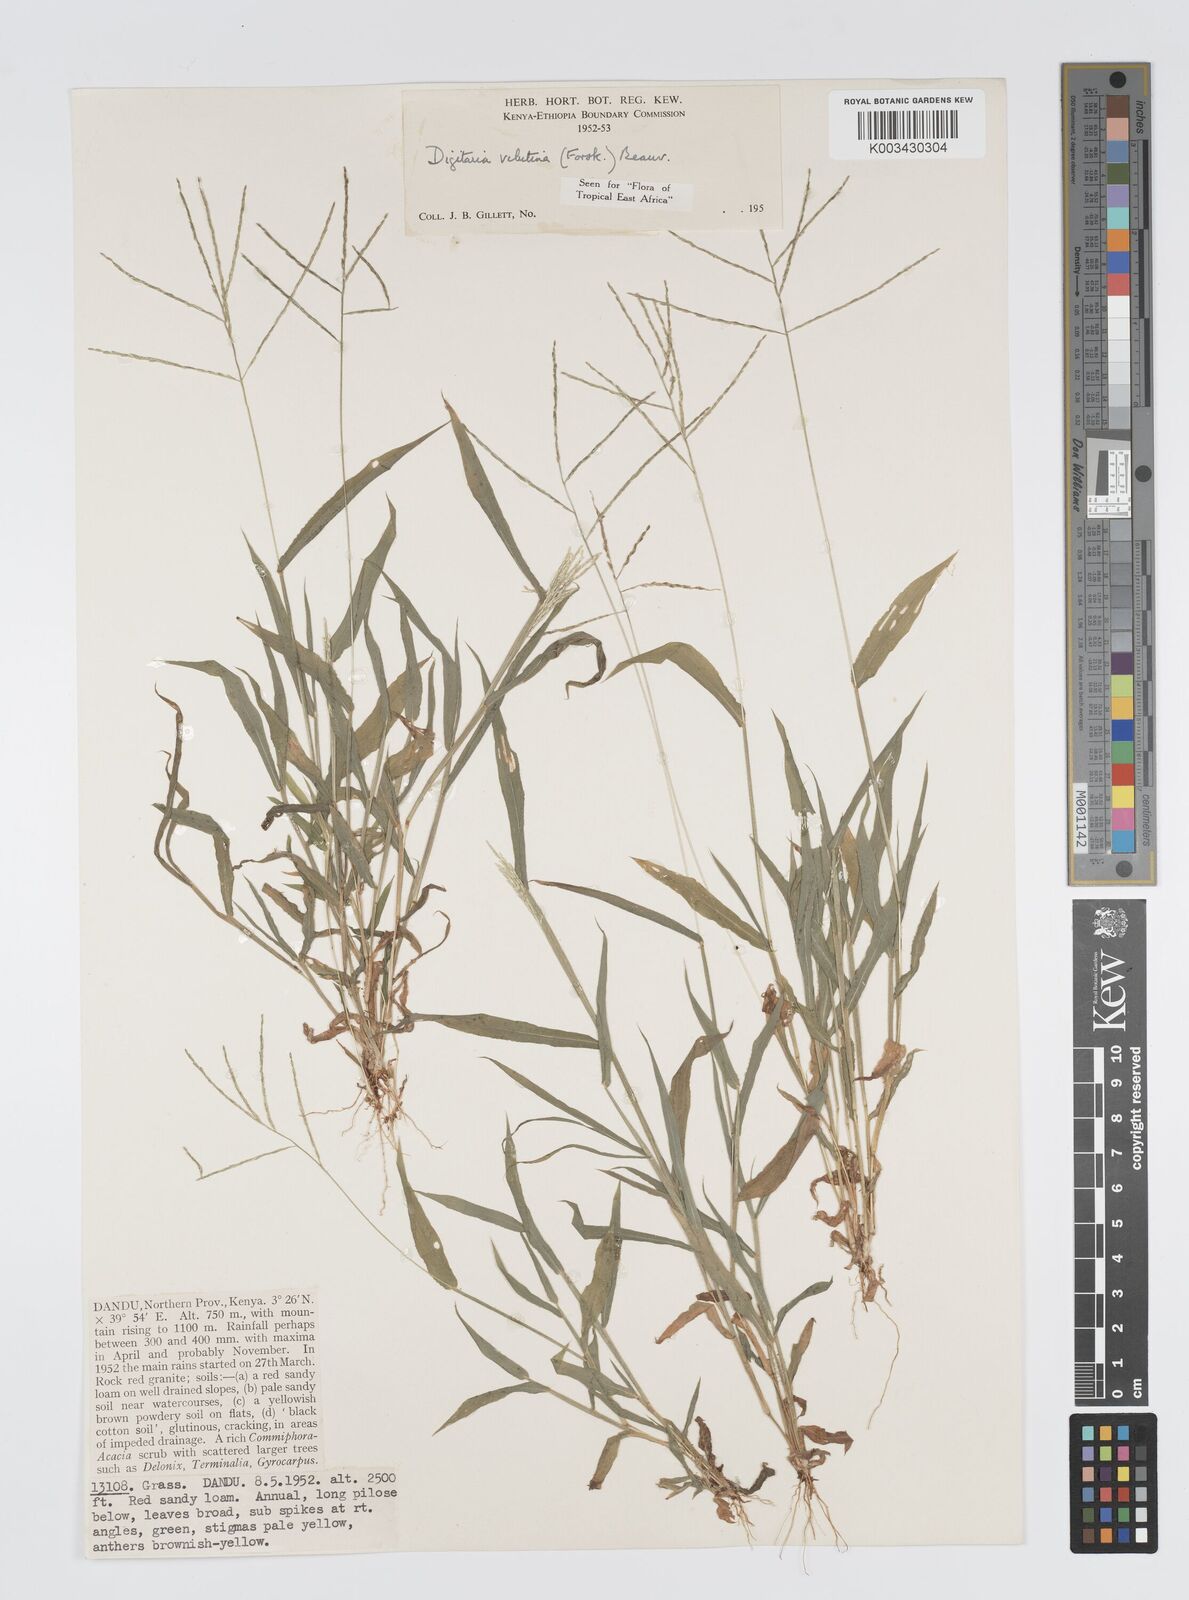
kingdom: Plantae
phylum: Tracheophyta
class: Liliopsida
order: Poales
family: Poaceae
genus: Digitaria
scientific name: Digitaria velutina
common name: Long-plume finger grass
